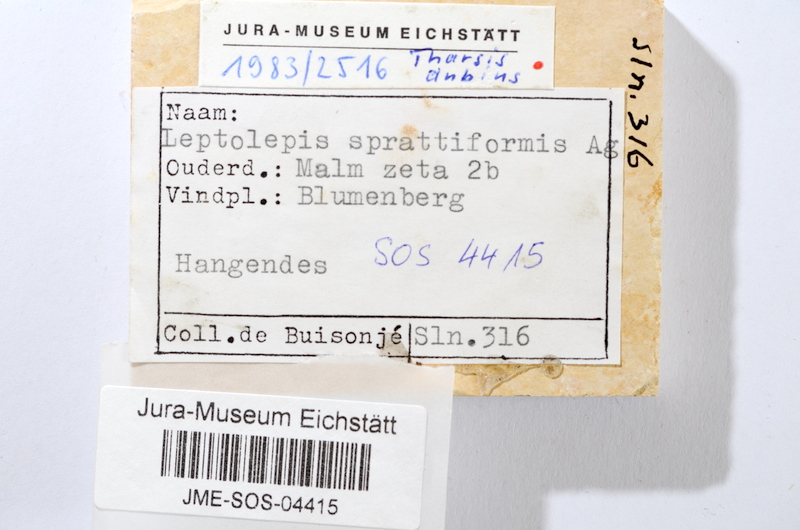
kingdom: Animalia
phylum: Chordata
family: Ascalaboidae
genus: Tharsis
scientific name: Tharsis dubius
